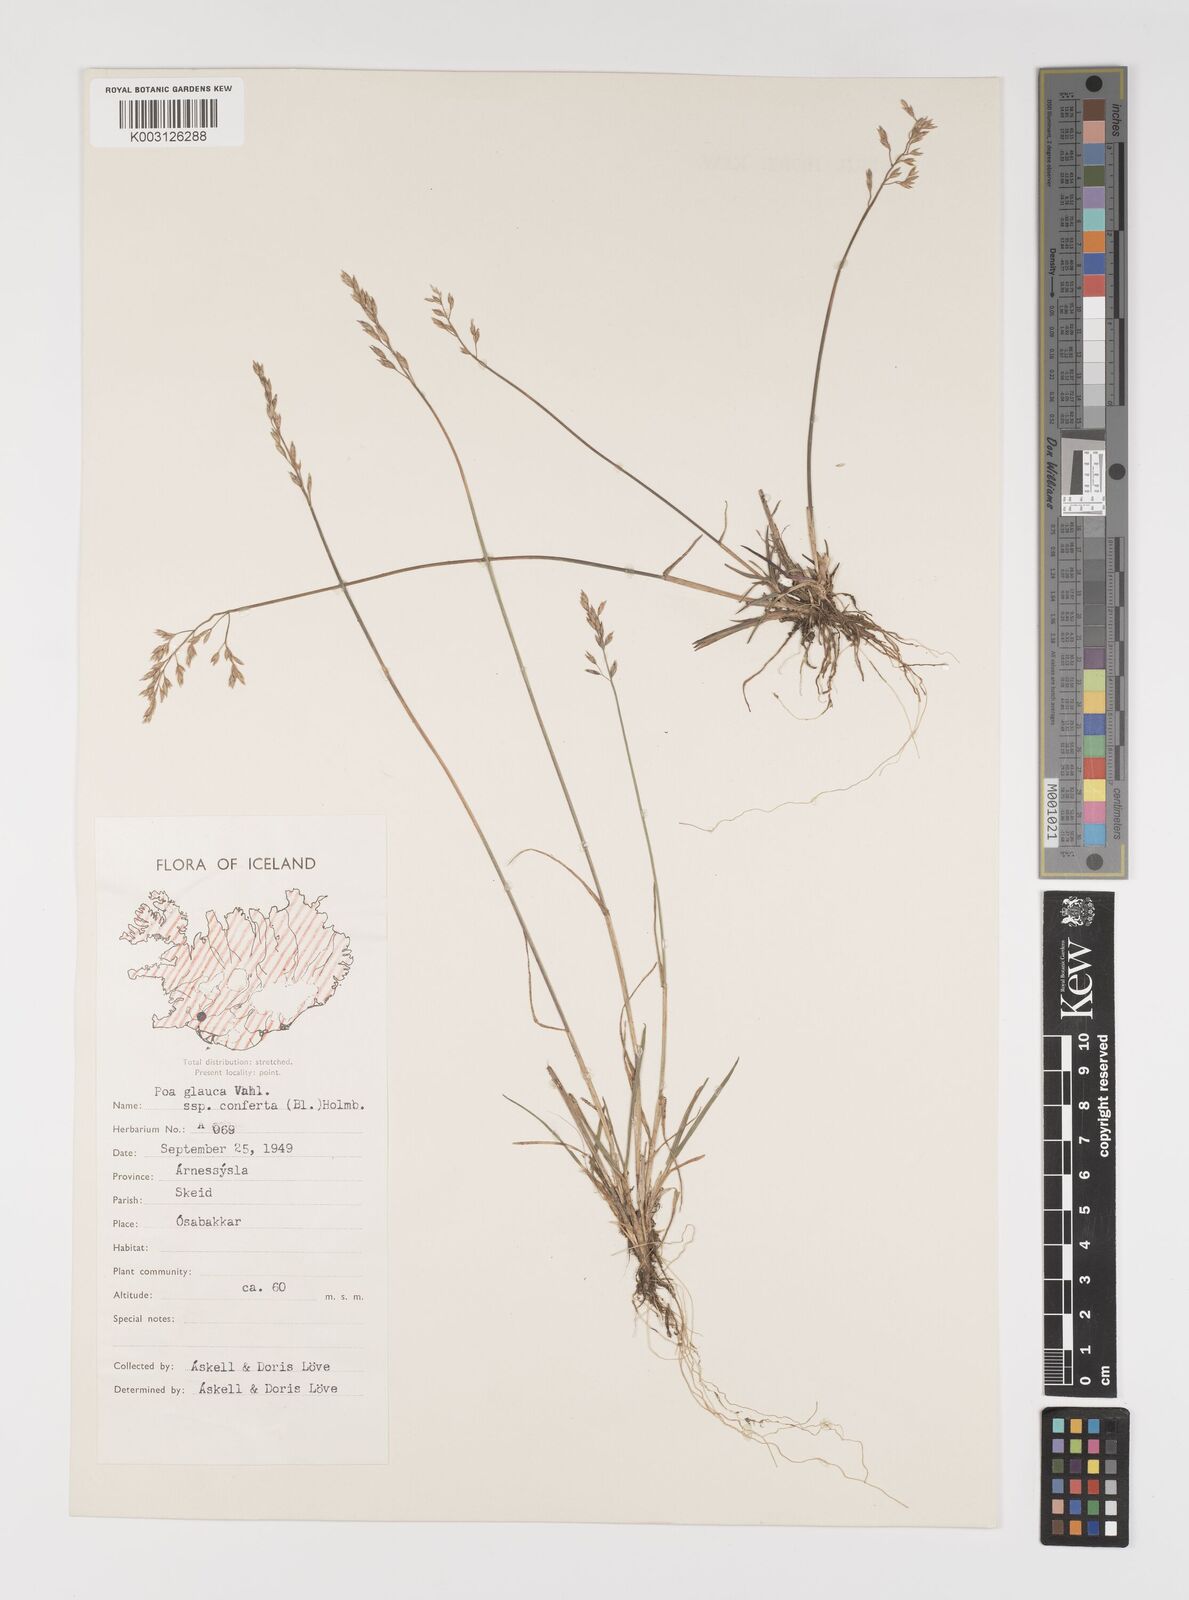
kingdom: Plantae
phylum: Tracheophyta
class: Liliopsida
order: Poales
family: Poaceae
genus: Poa
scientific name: Poa glauca
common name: Glaucous bluegrass
